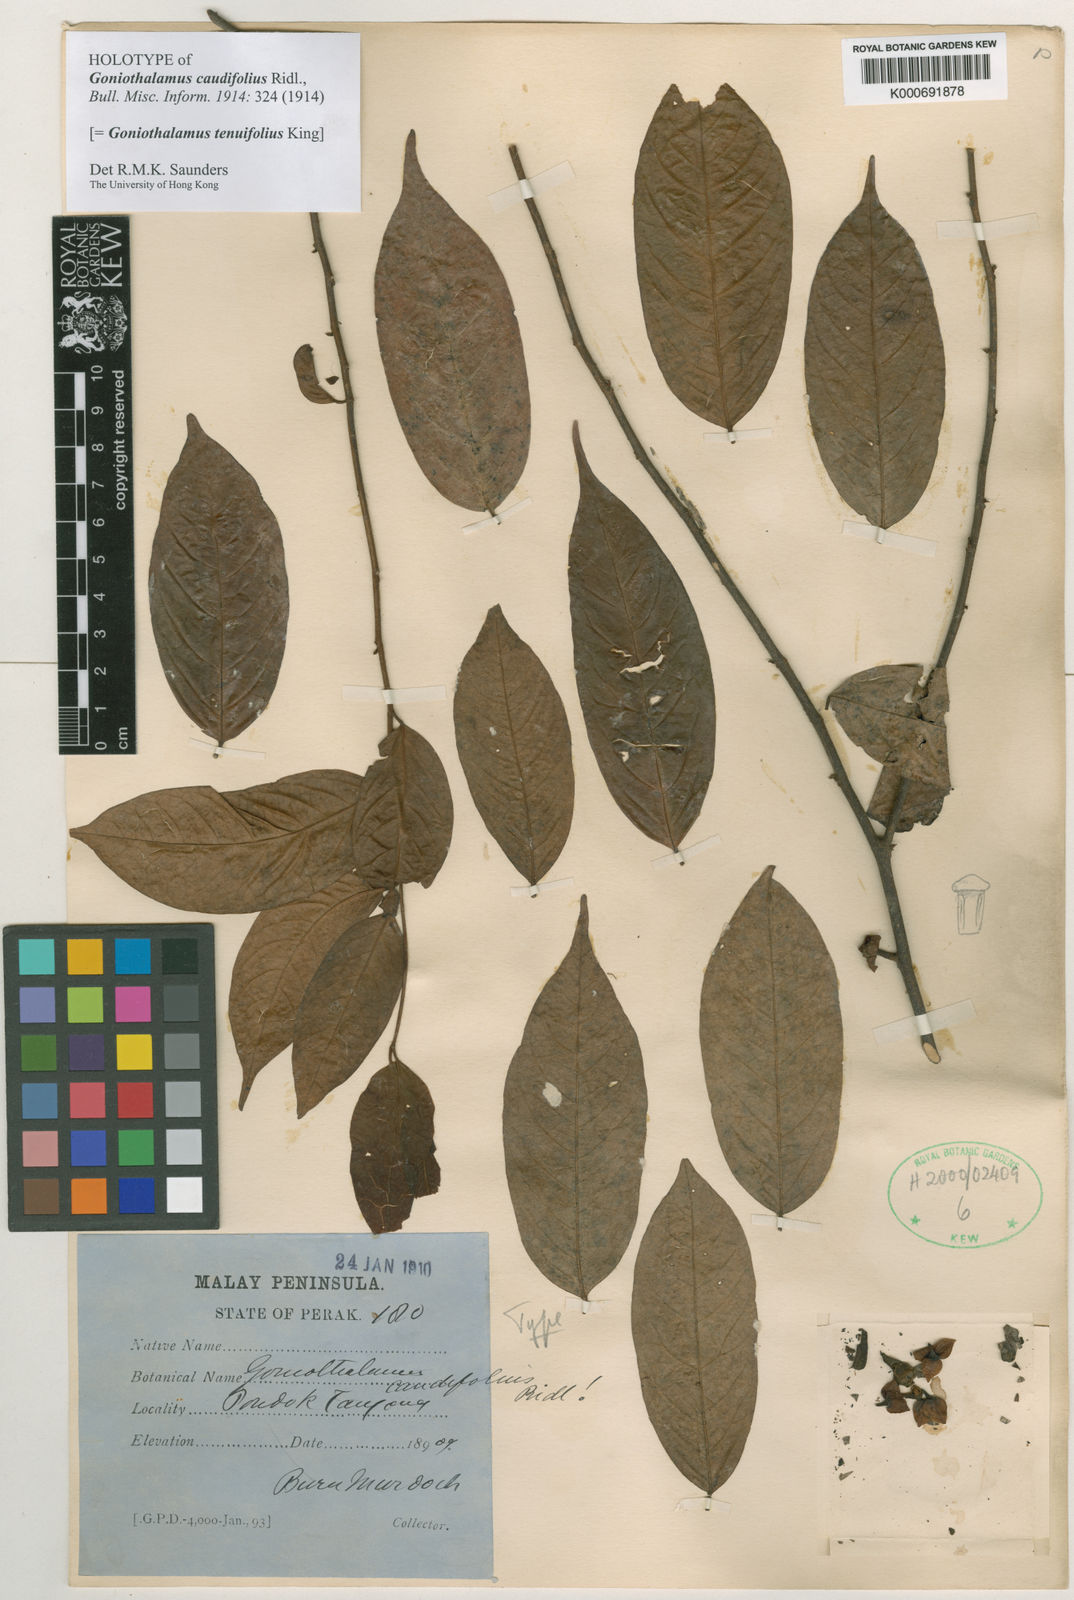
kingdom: Plantae
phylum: Tracheophyta
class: Magnoliopsida
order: Magnoliales
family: Annonaceae
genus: Goniothalamus
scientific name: Goniothalamus tenuifolius
